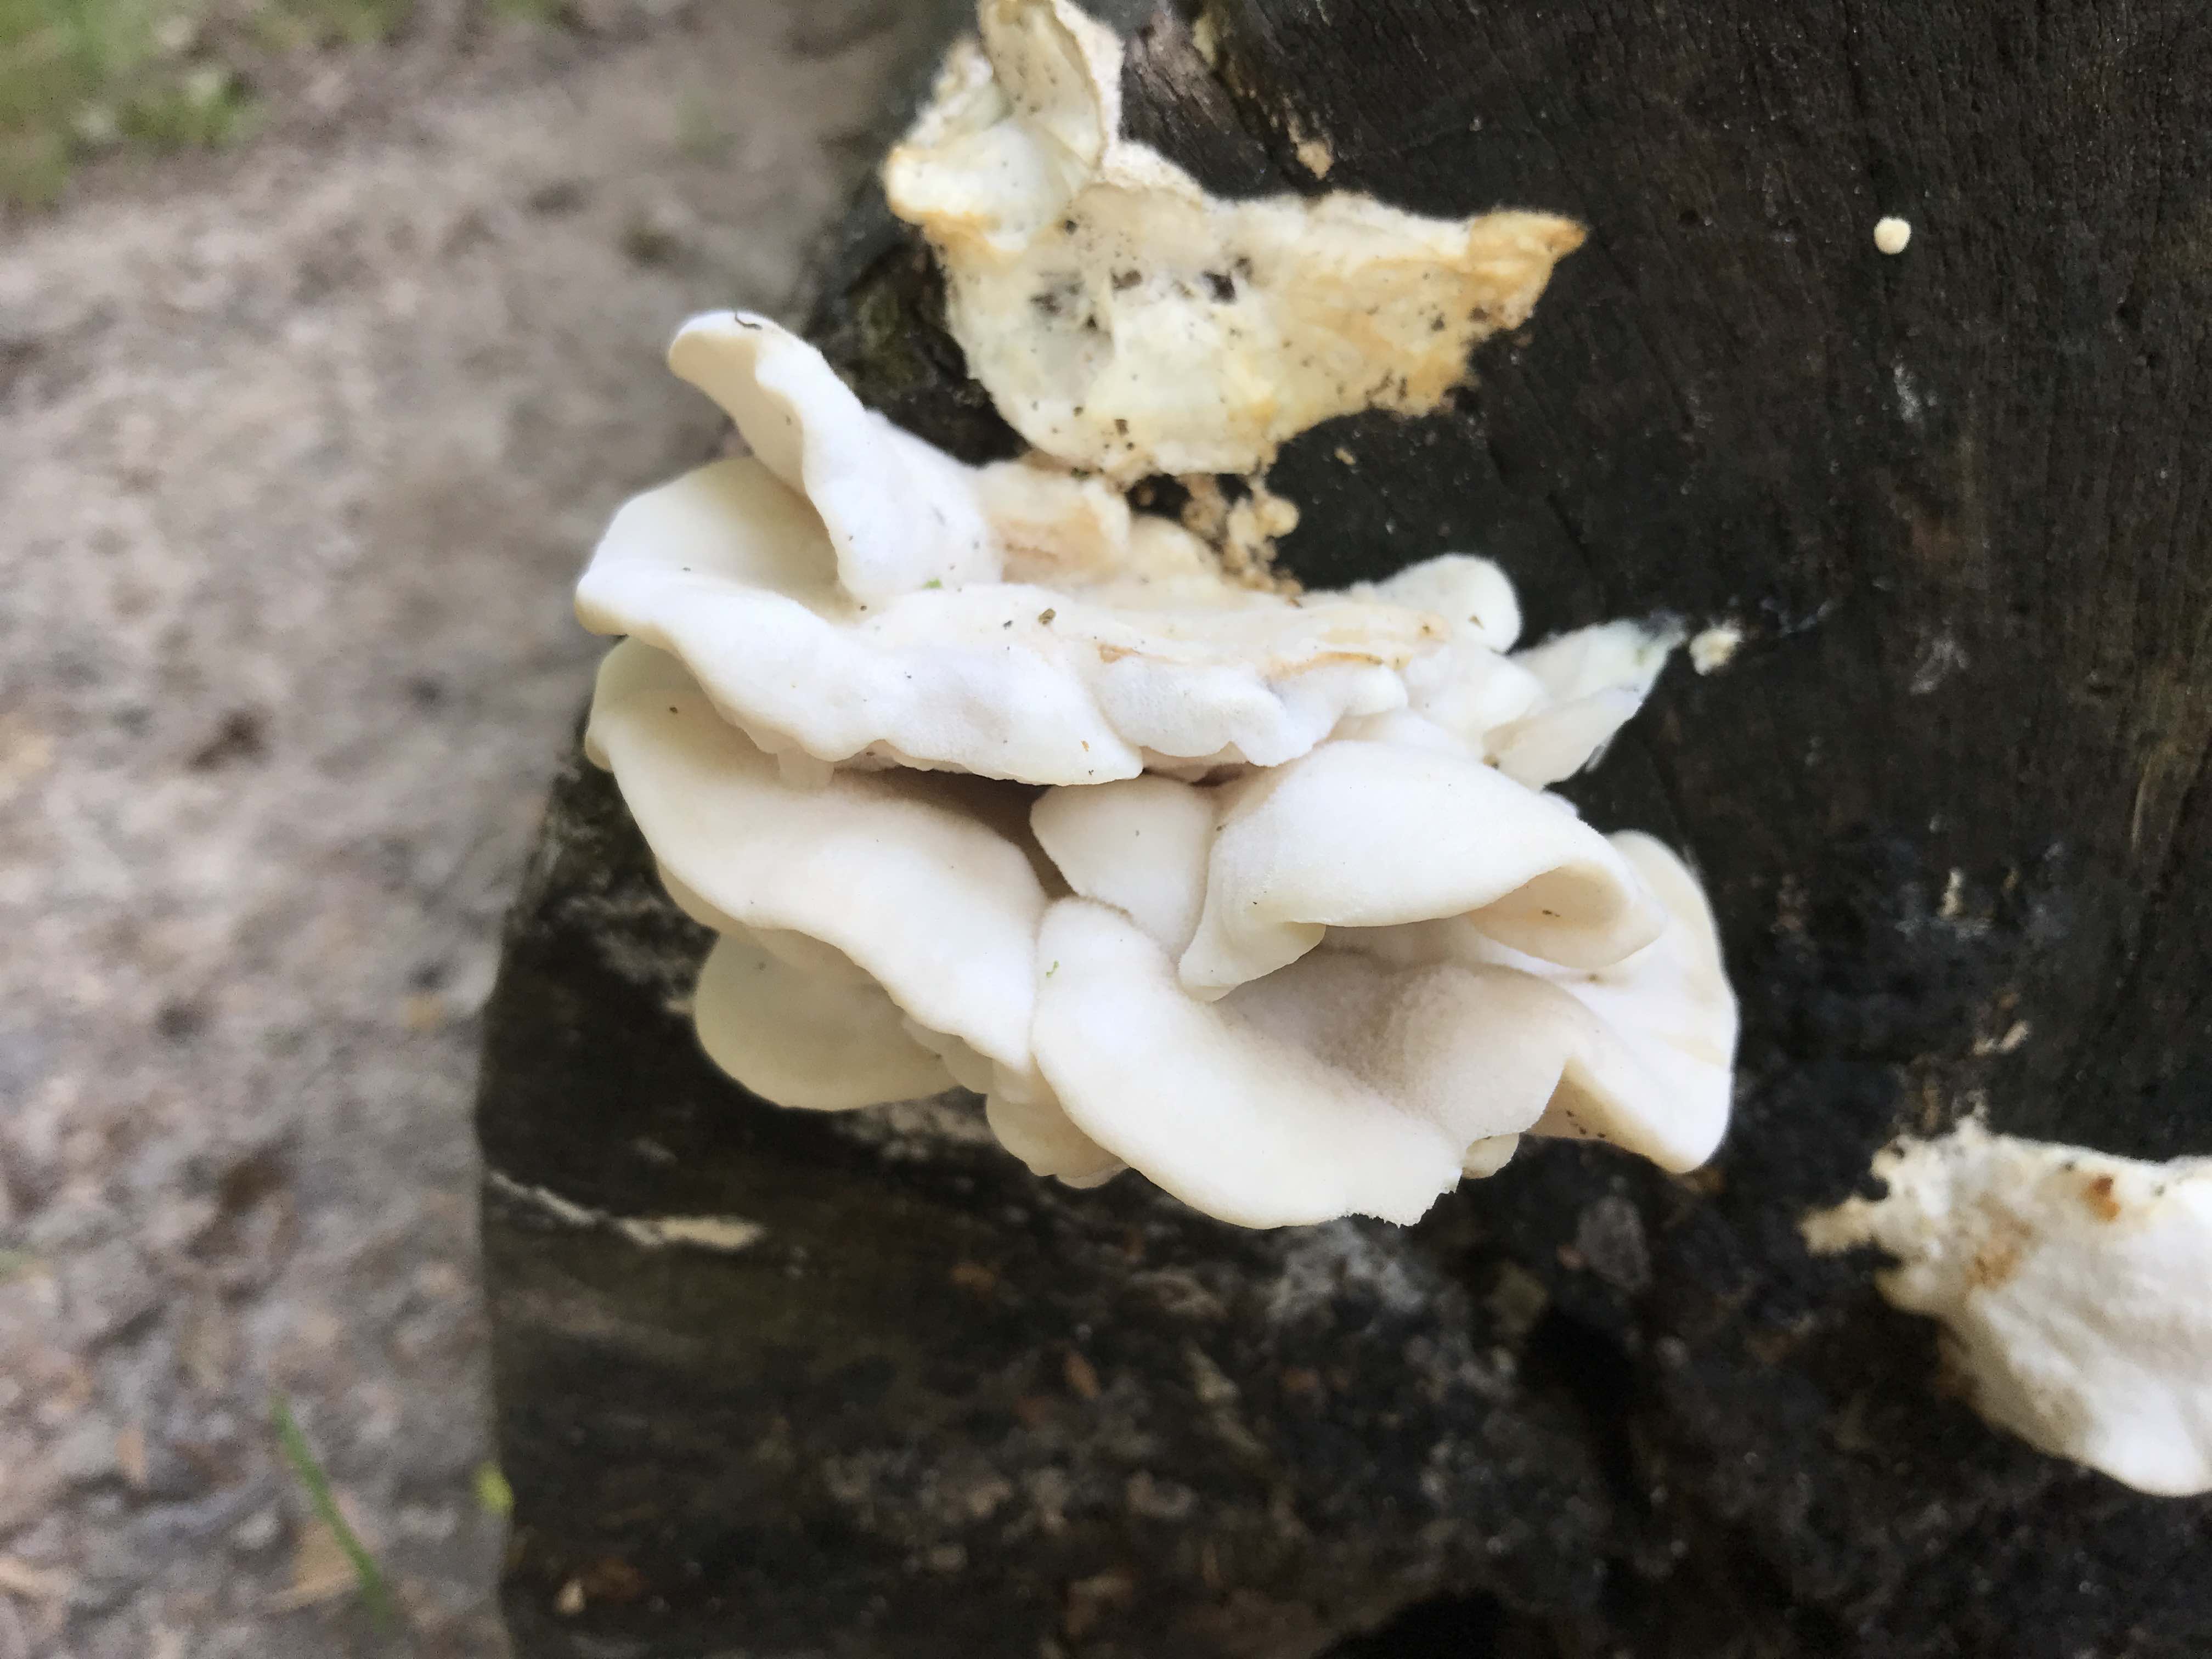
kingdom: Fungi
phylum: Basidiomycota
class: Agaricomycetes
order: Polyporales
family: Incrustoporiaceae
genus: Tyromyces
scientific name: Tyromyces chioneus
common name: stor blødporesvamp
